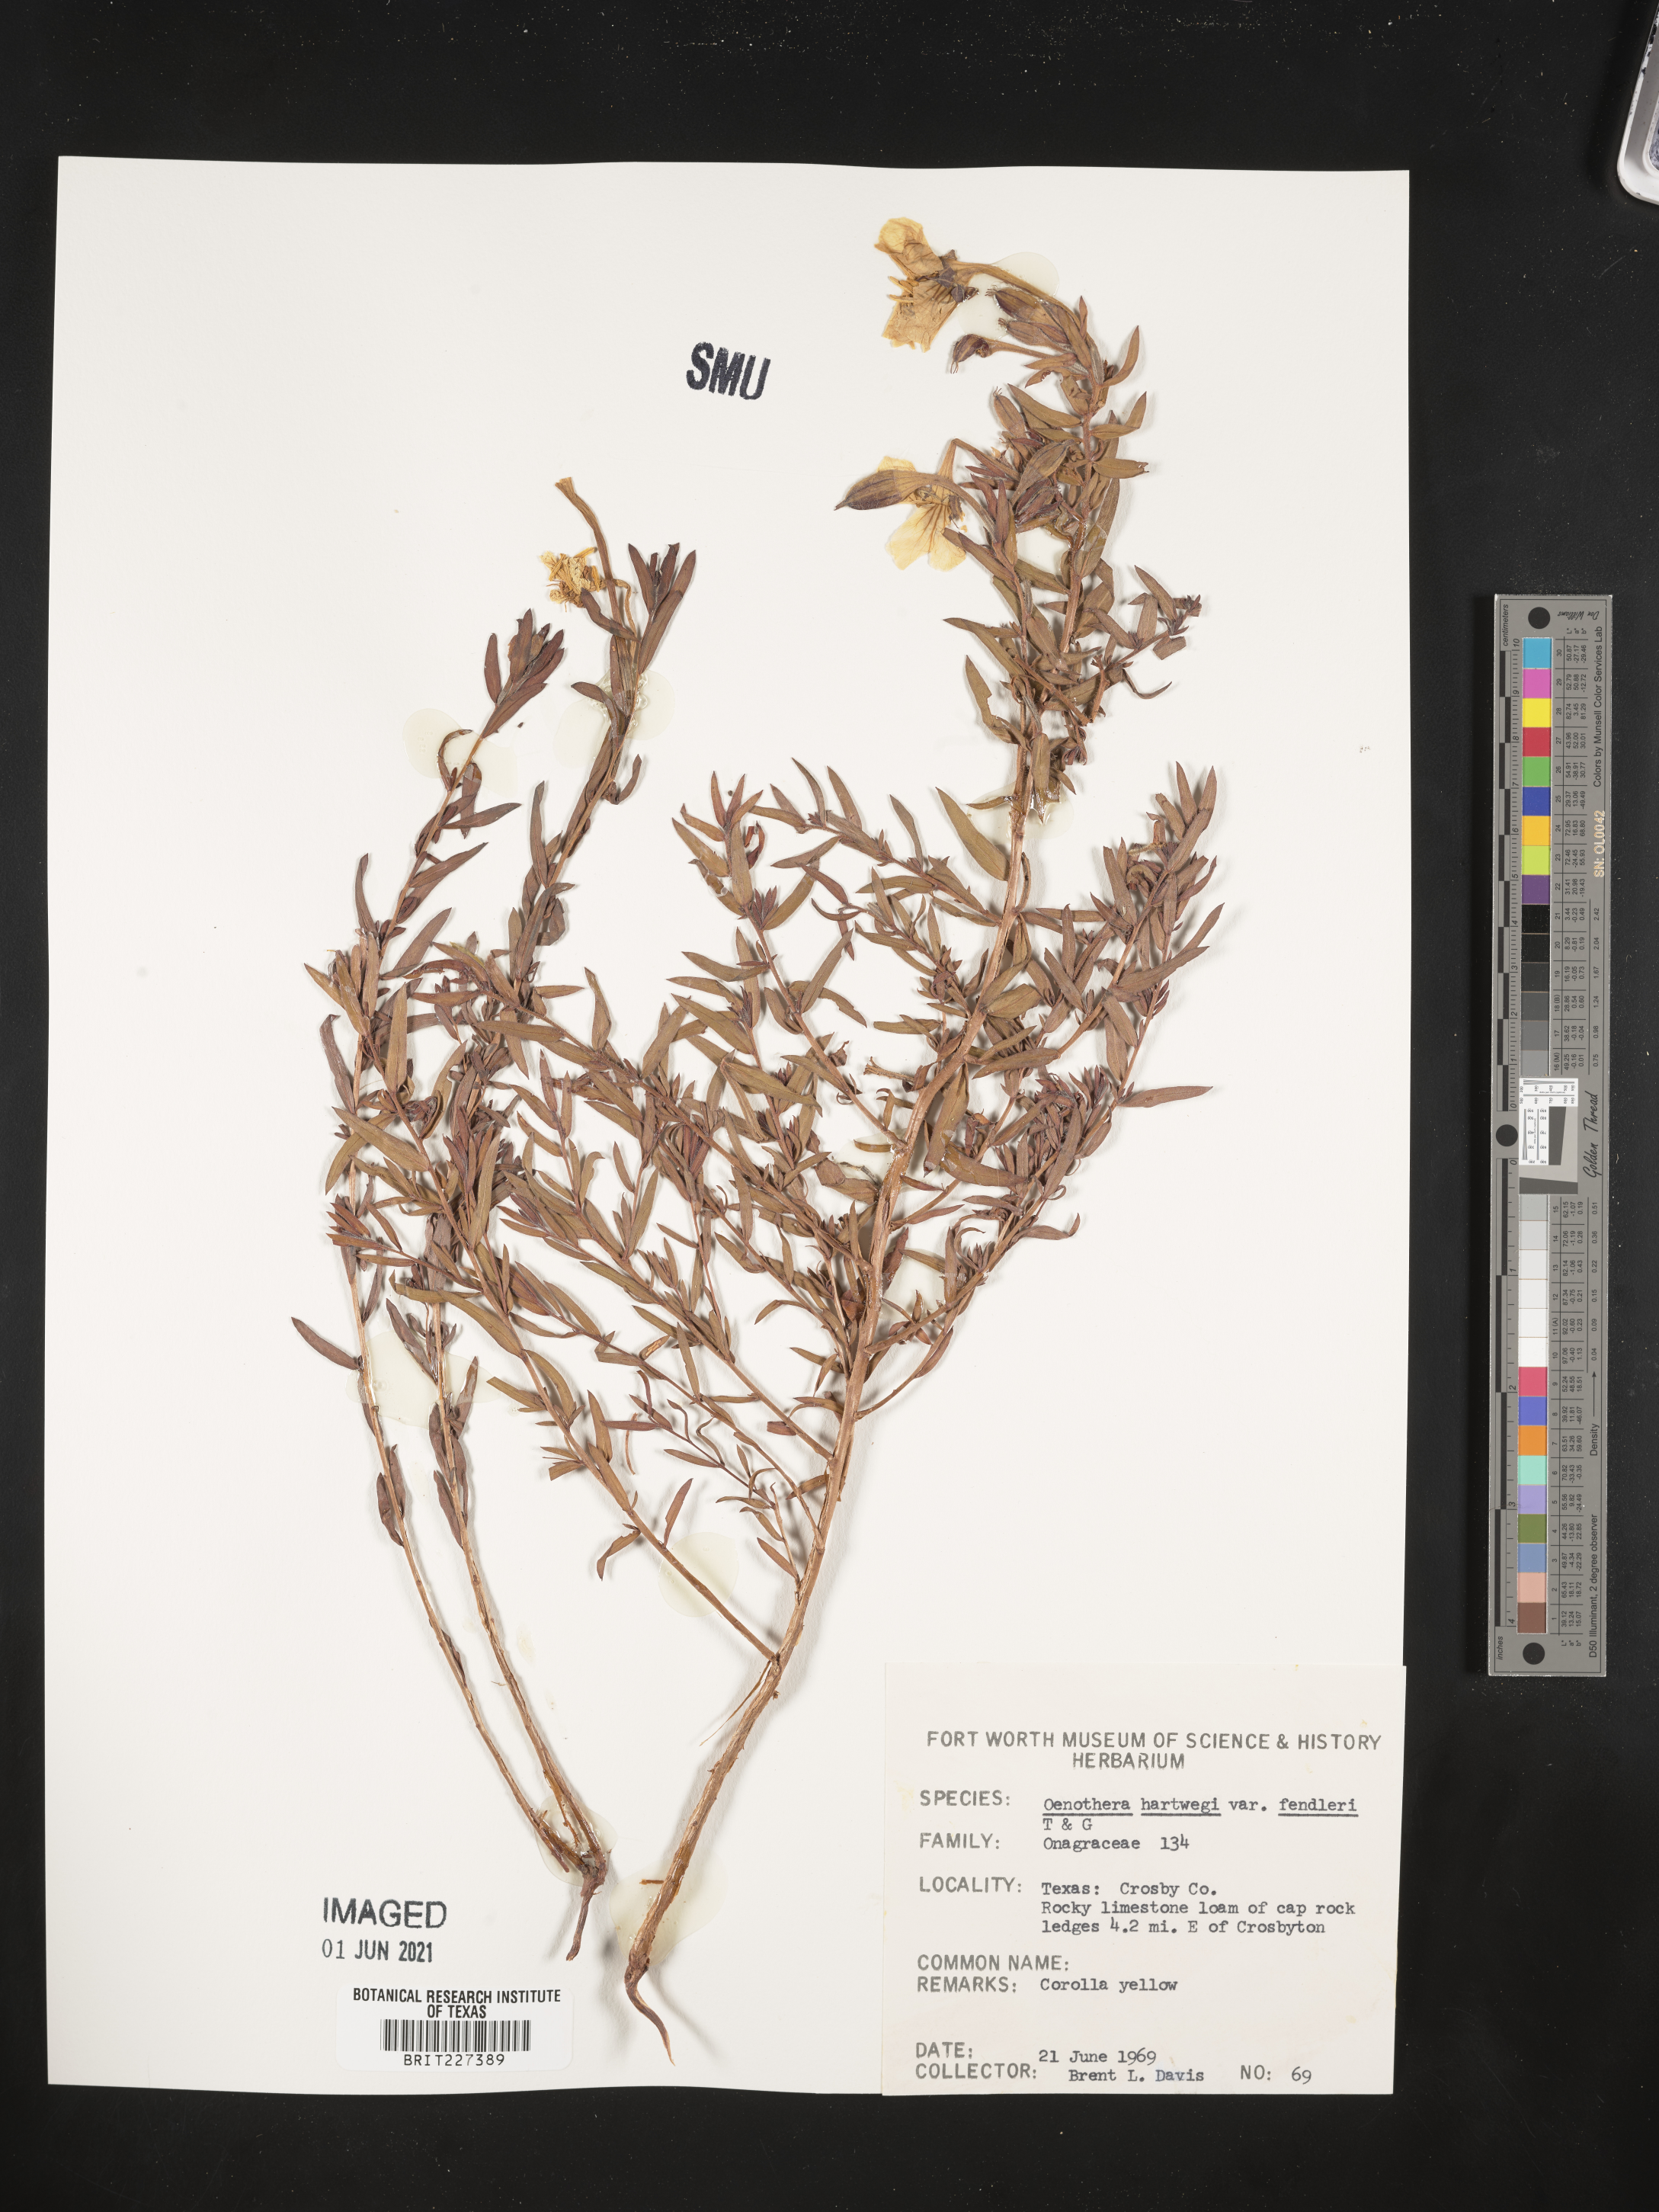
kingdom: Plantae
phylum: Tracheophyta
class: Magnoliopsida
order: Myrtales
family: Onagraceae
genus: Oenothera
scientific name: Oenothera hartwegii
